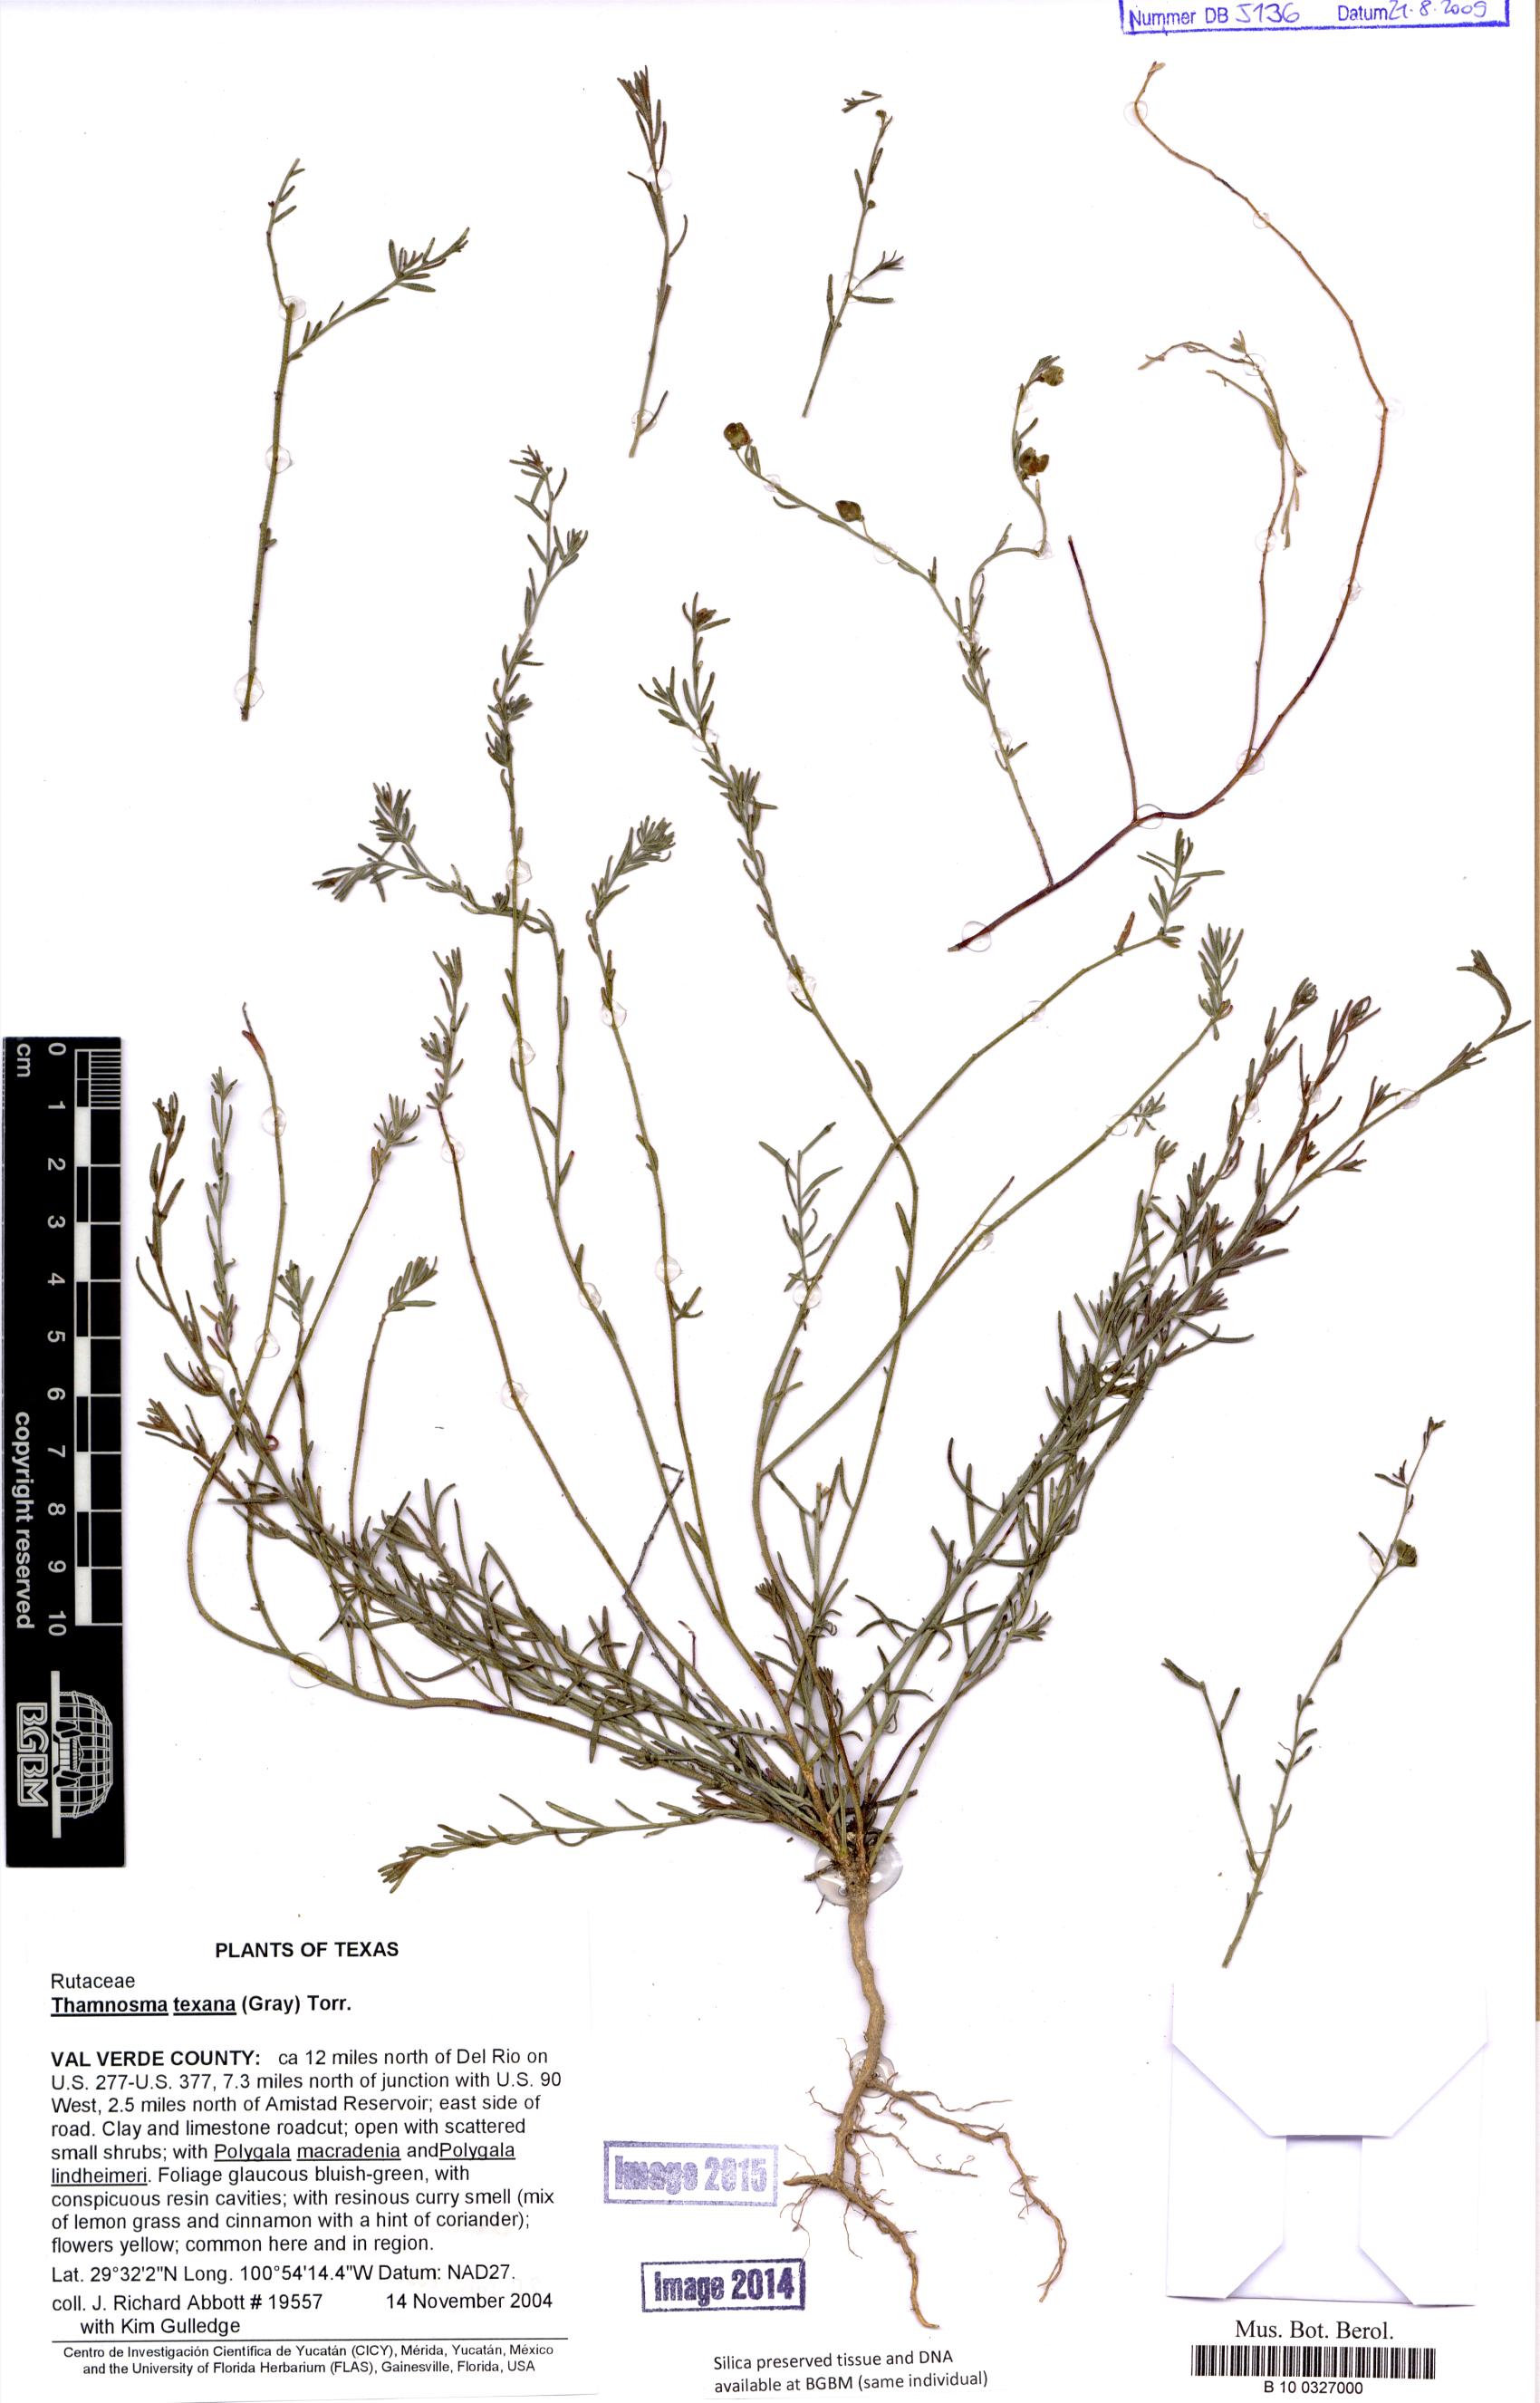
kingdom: Plantae
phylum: Tracheophyta
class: Magnoliopsida
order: Sapindales
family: Rutaceae
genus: Thamnosma
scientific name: Thamnosma texana
